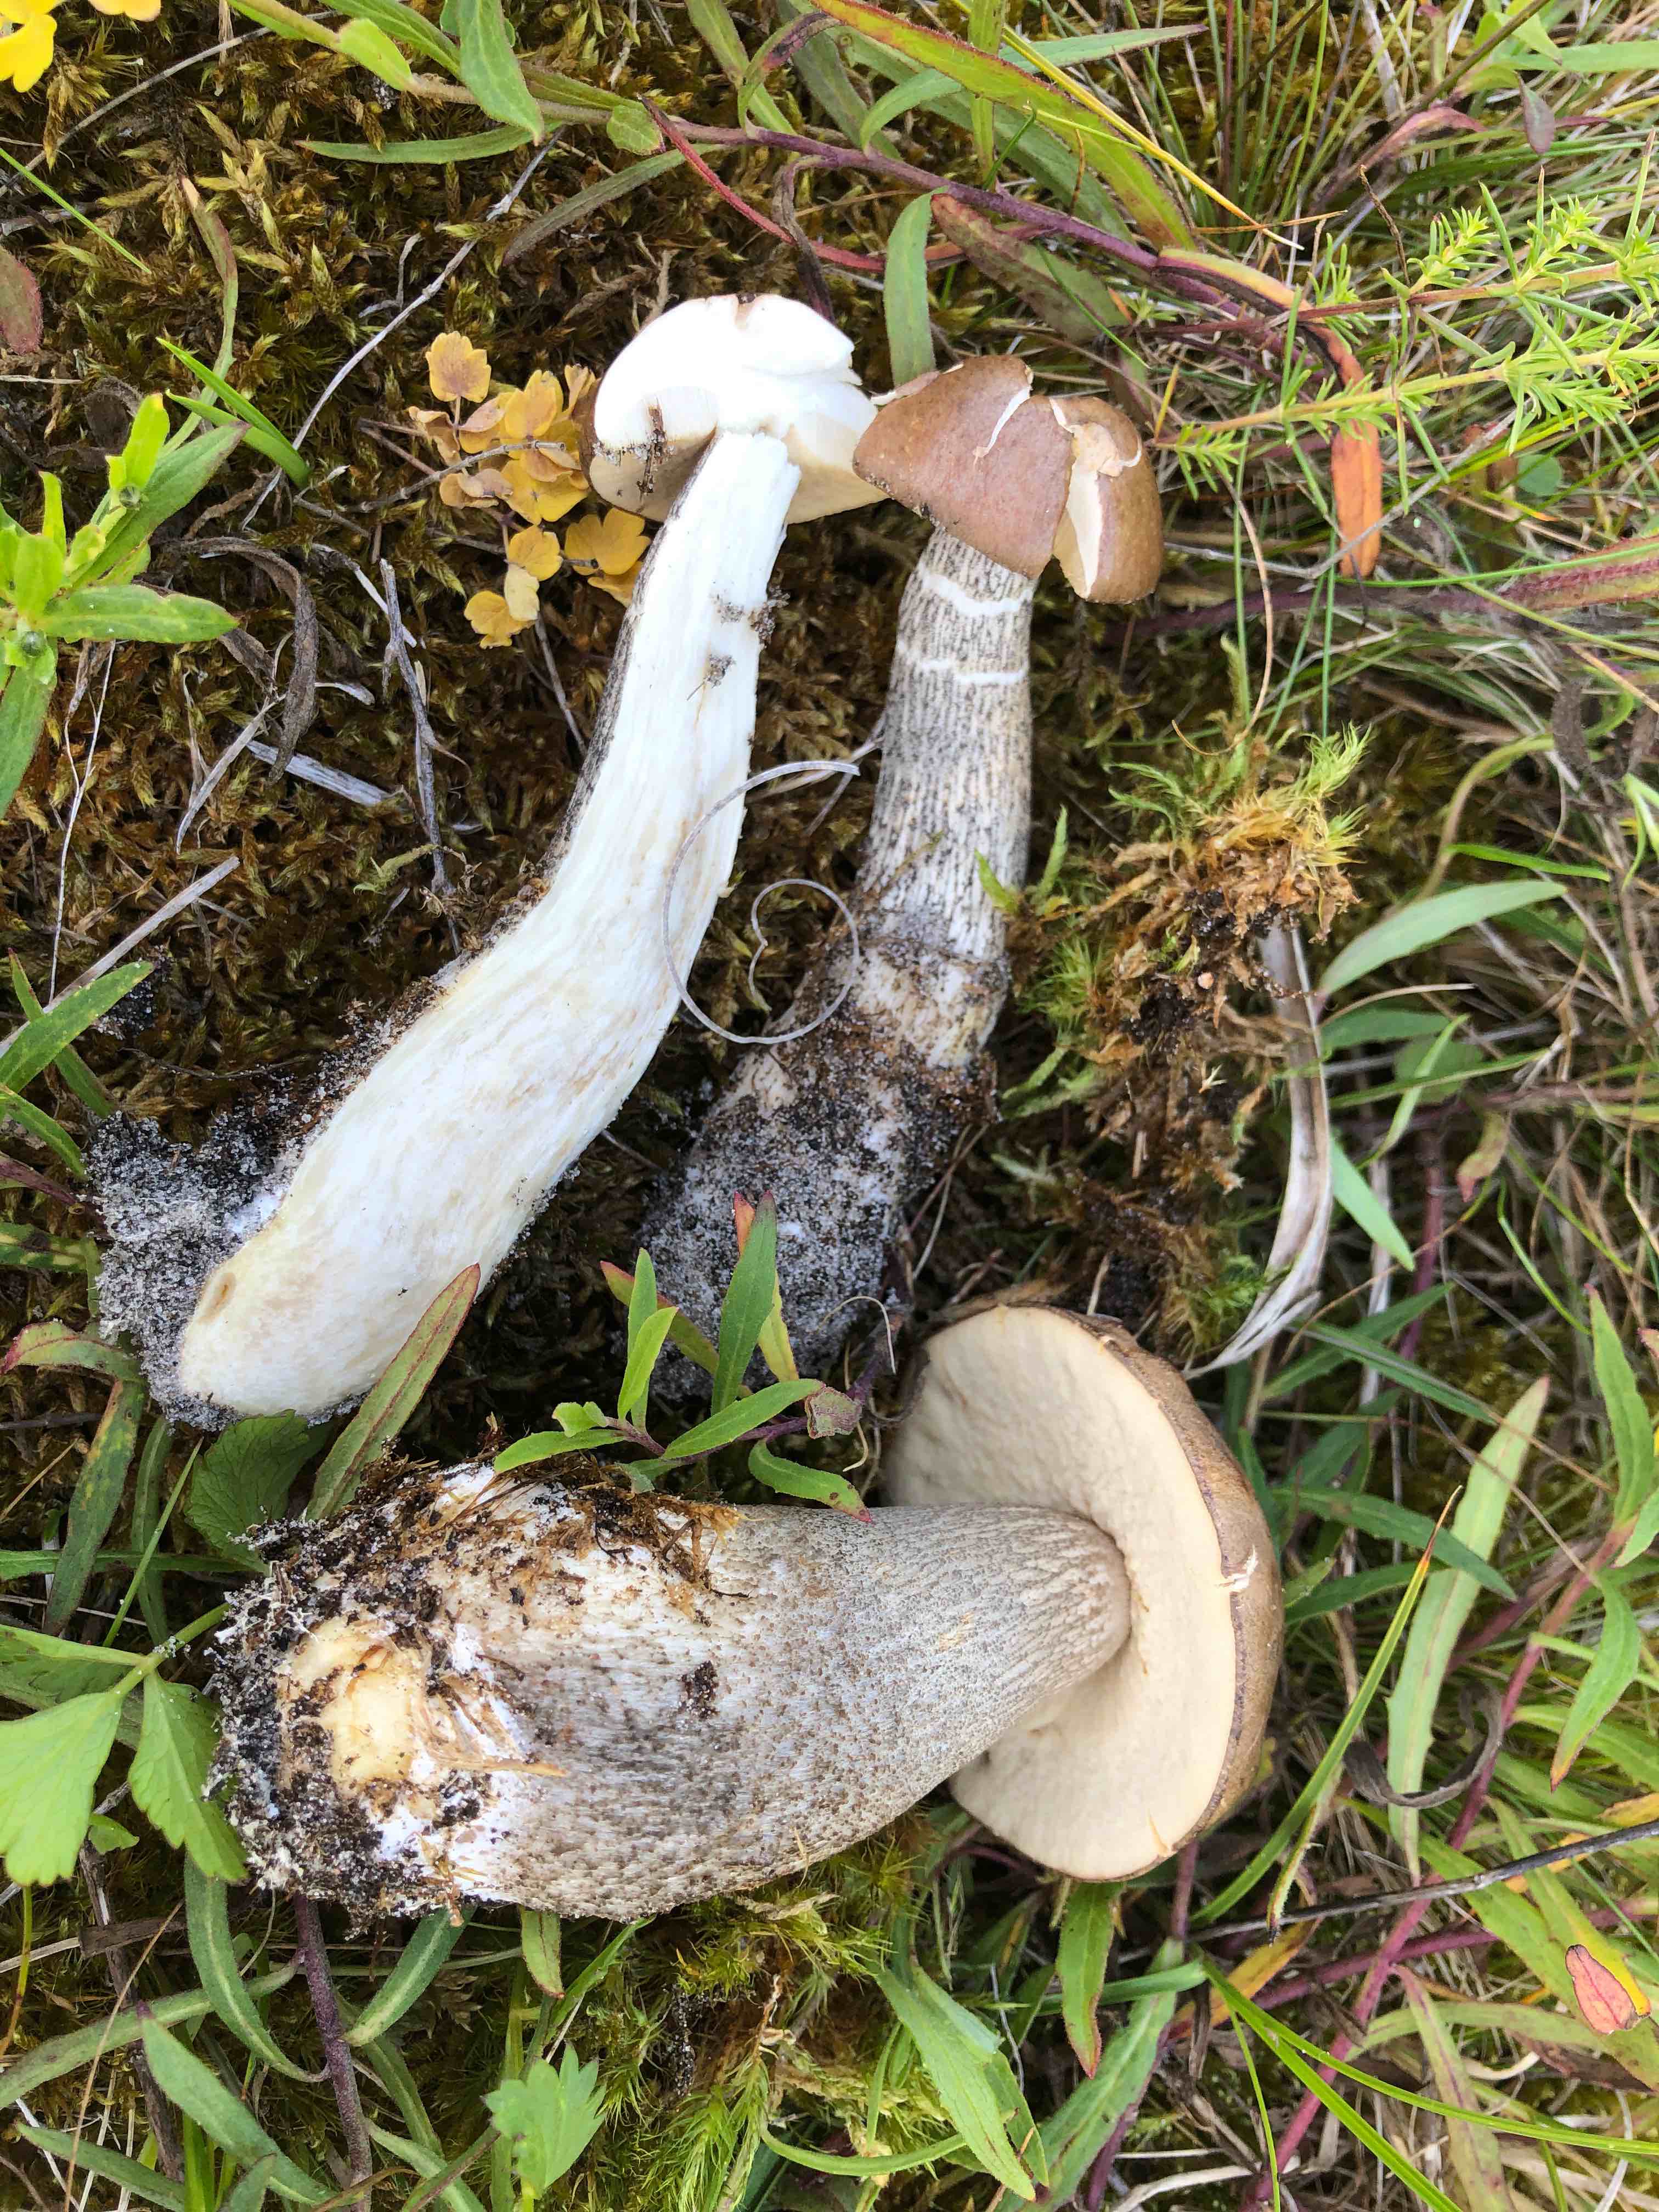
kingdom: Fungi
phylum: Basidiomycota
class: Agaricomycetes
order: Boletales
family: Boletaceae
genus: Leccinum
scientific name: Leccinum scabrum
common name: brun skælrørhat
